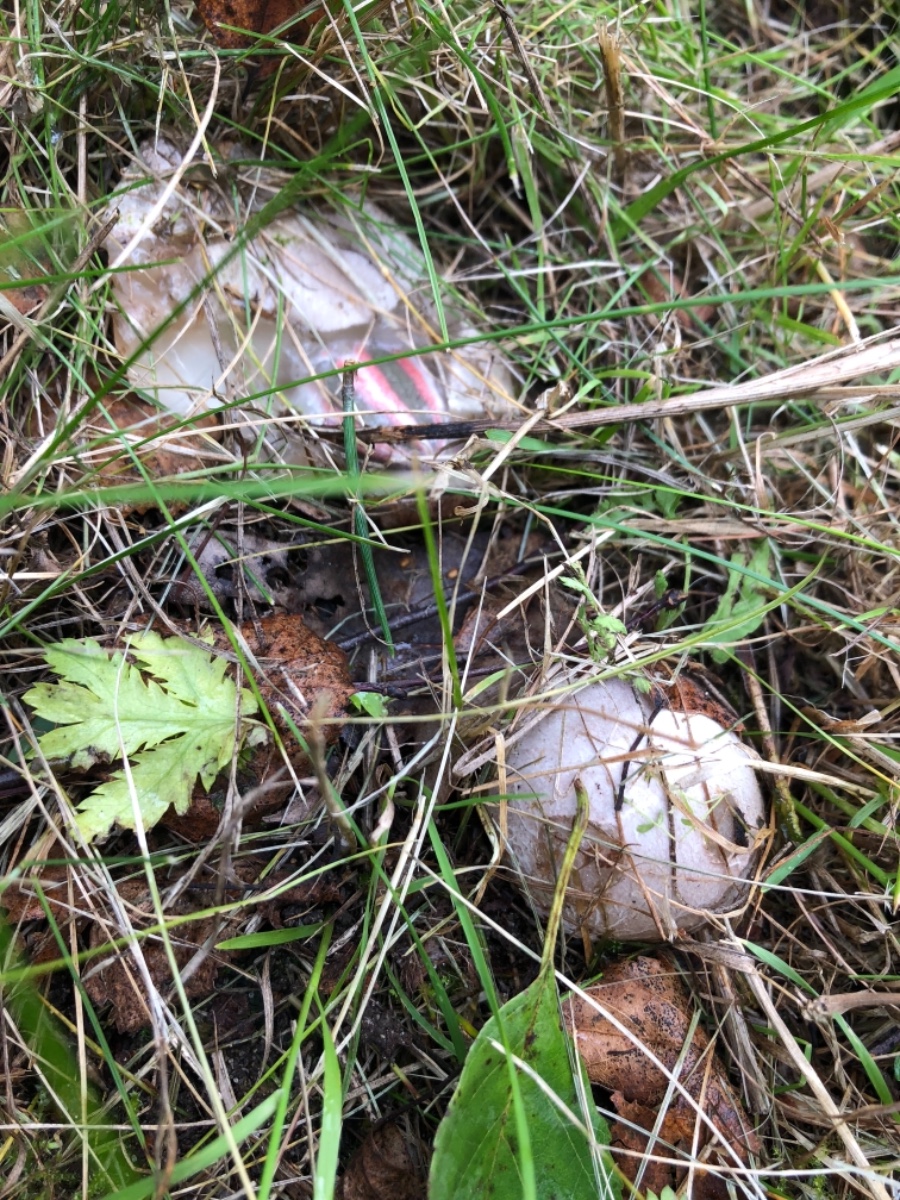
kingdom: Fungi
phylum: Basidiomycota
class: Agaricomycetes
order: Phallales
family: Phallaceae
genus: Clathrus
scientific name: Clathrus archeri
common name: blækspruttesvamp
